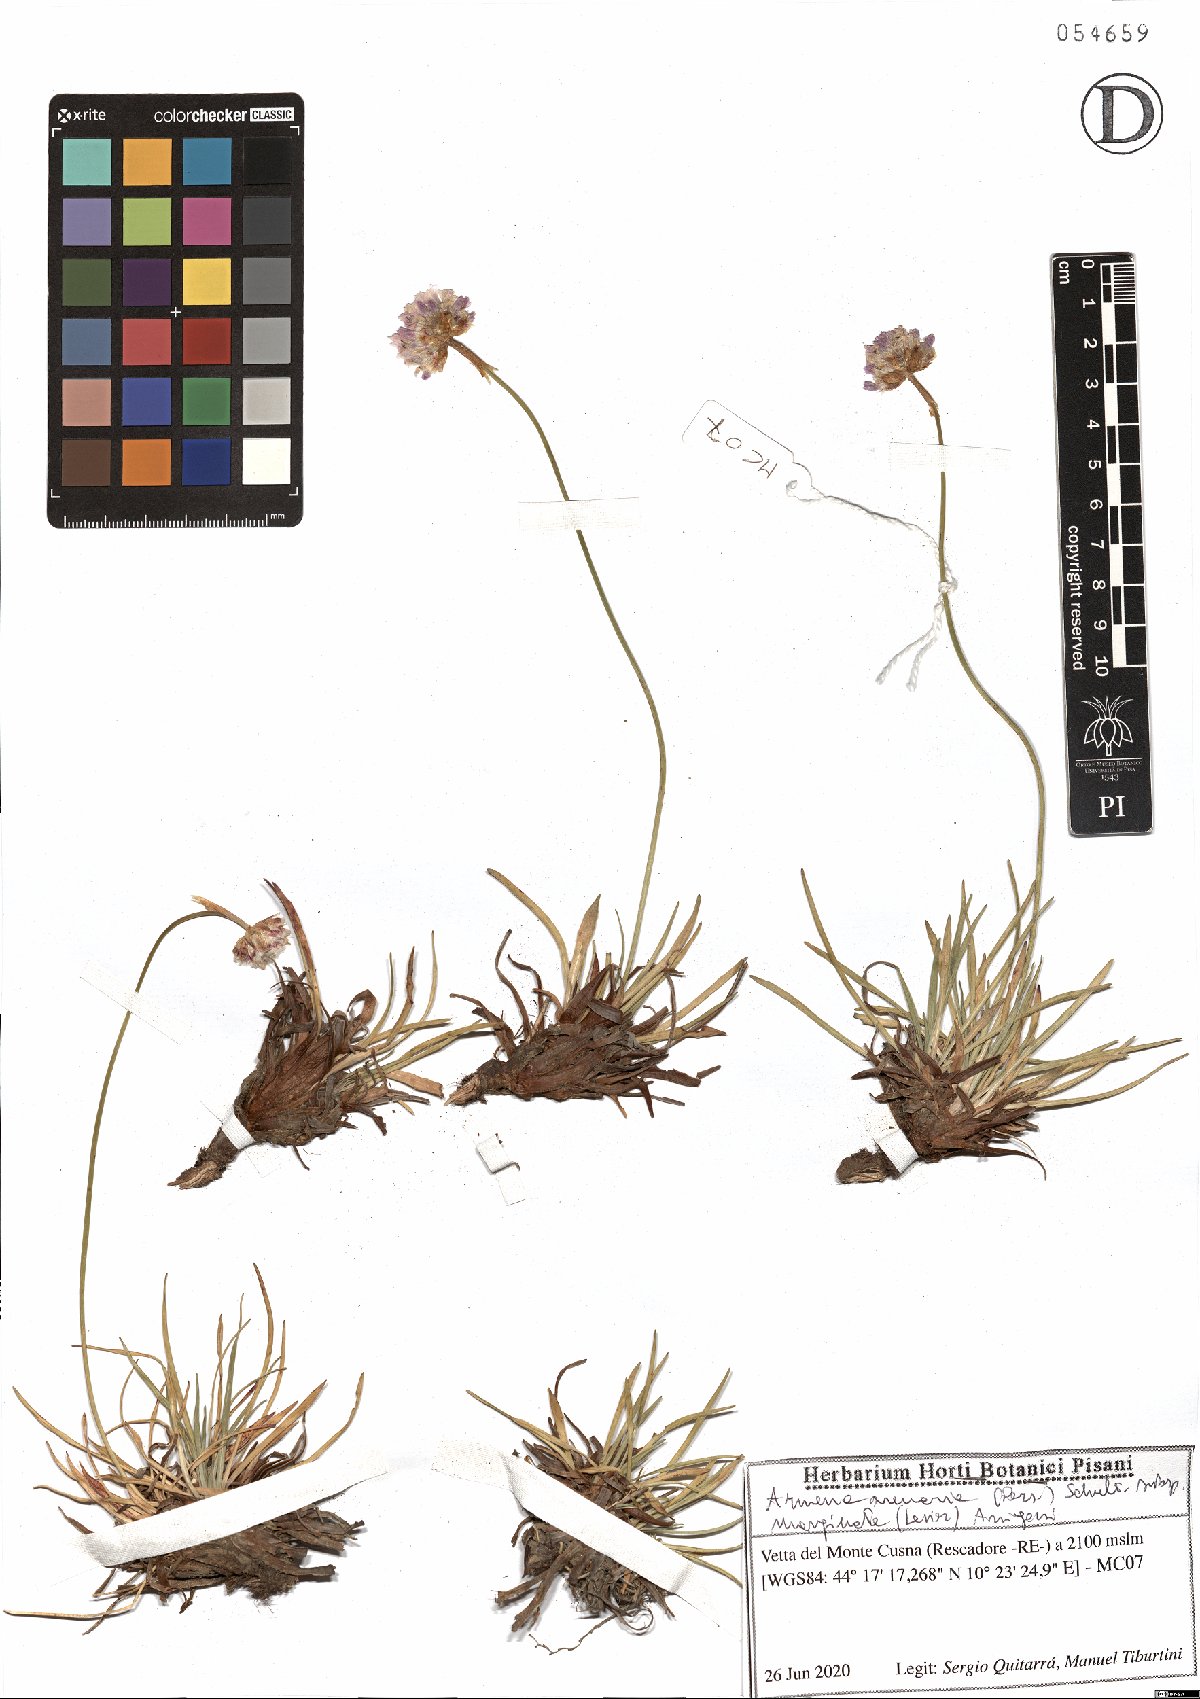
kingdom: Plantae
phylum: Tracheophyta
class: Magnoliopsida
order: Caryophyllales
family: Plumbaginaceae
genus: Armeria
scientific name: Armeria arenaria
